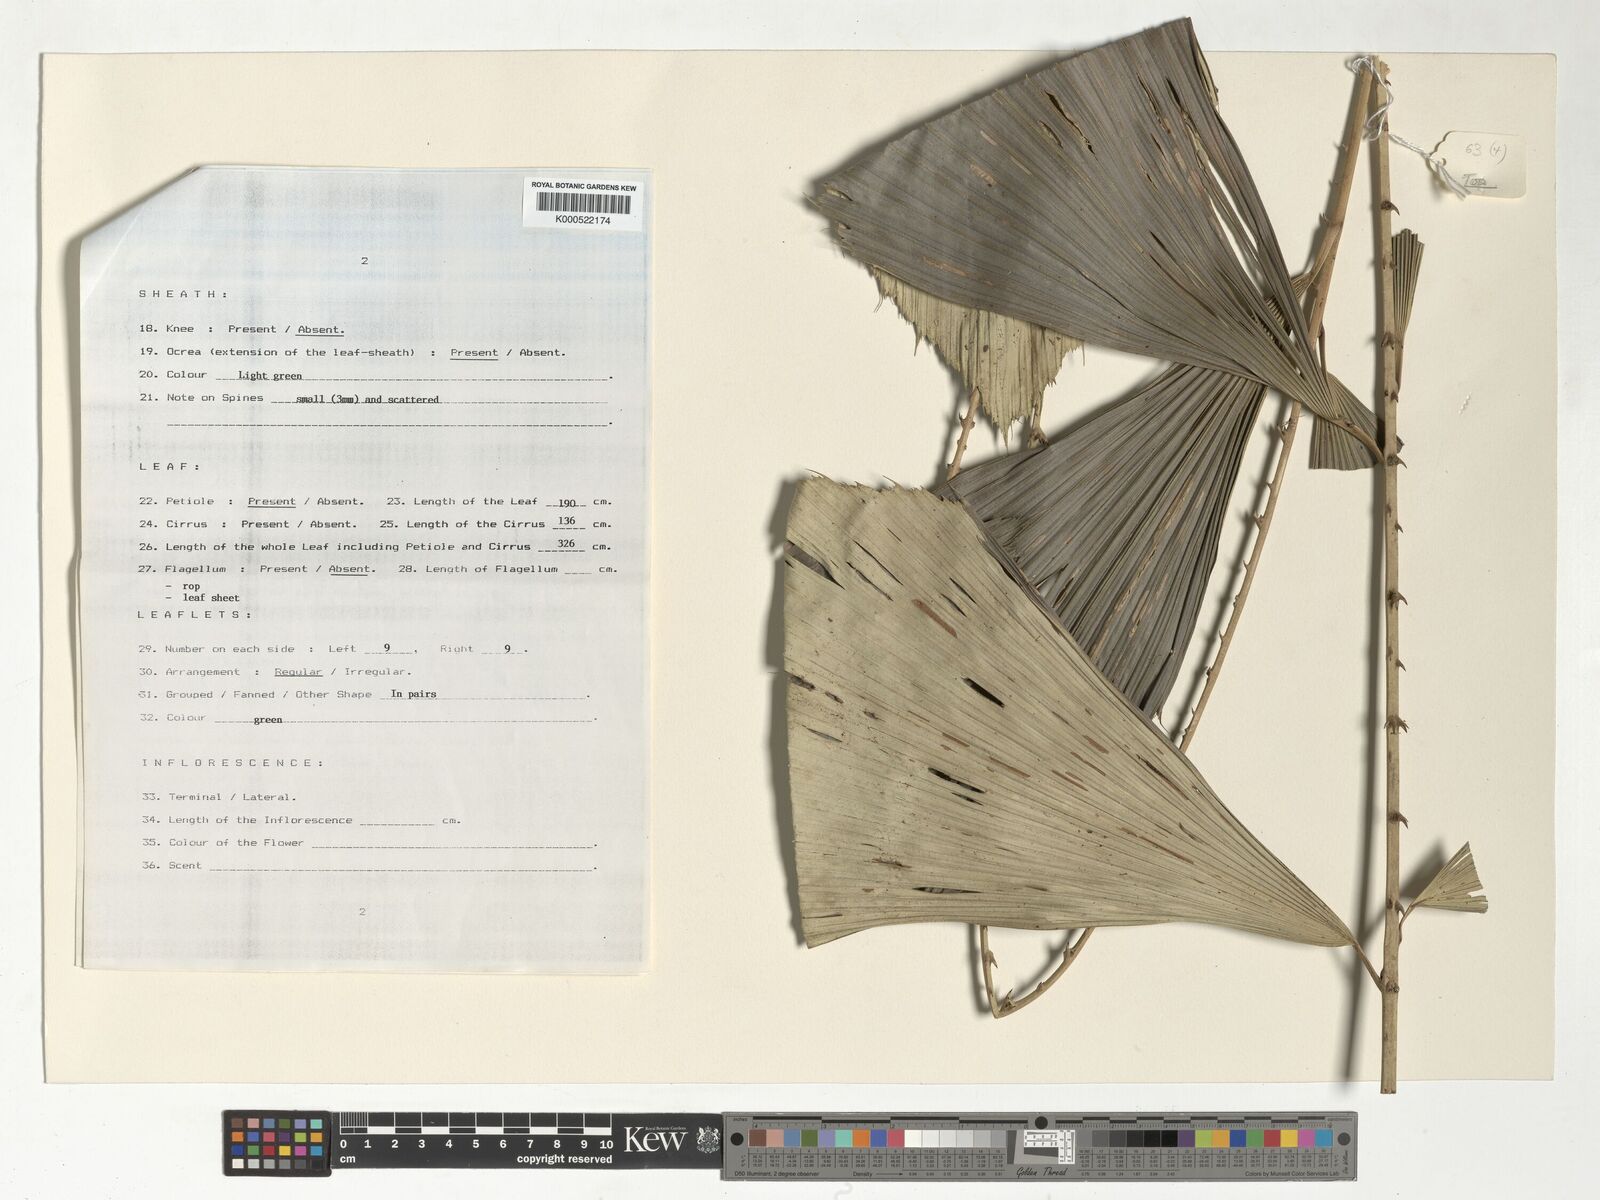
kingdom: Plantae
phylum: Tracheophyta
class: Liliopsida
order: Arecales
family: Arecaceae
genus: Korthalsia
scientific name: Korthalsia zippelii
